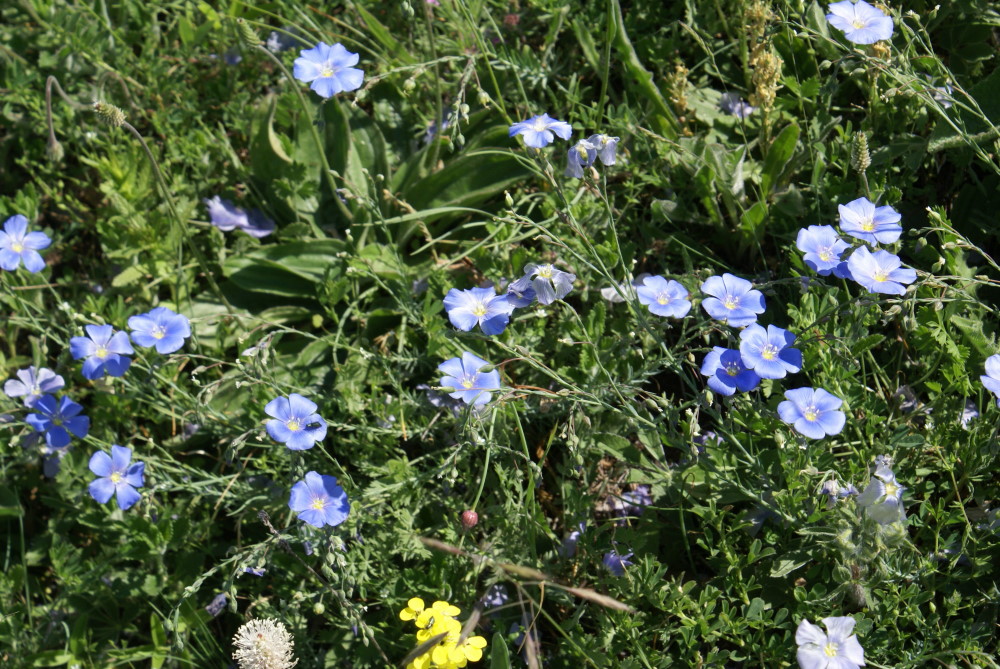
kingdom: Plantae
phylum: Tracheophyta
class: Magnoliopsida
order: Malpighiales
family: Linaceae
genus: Linum
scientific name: Linum austriacum
